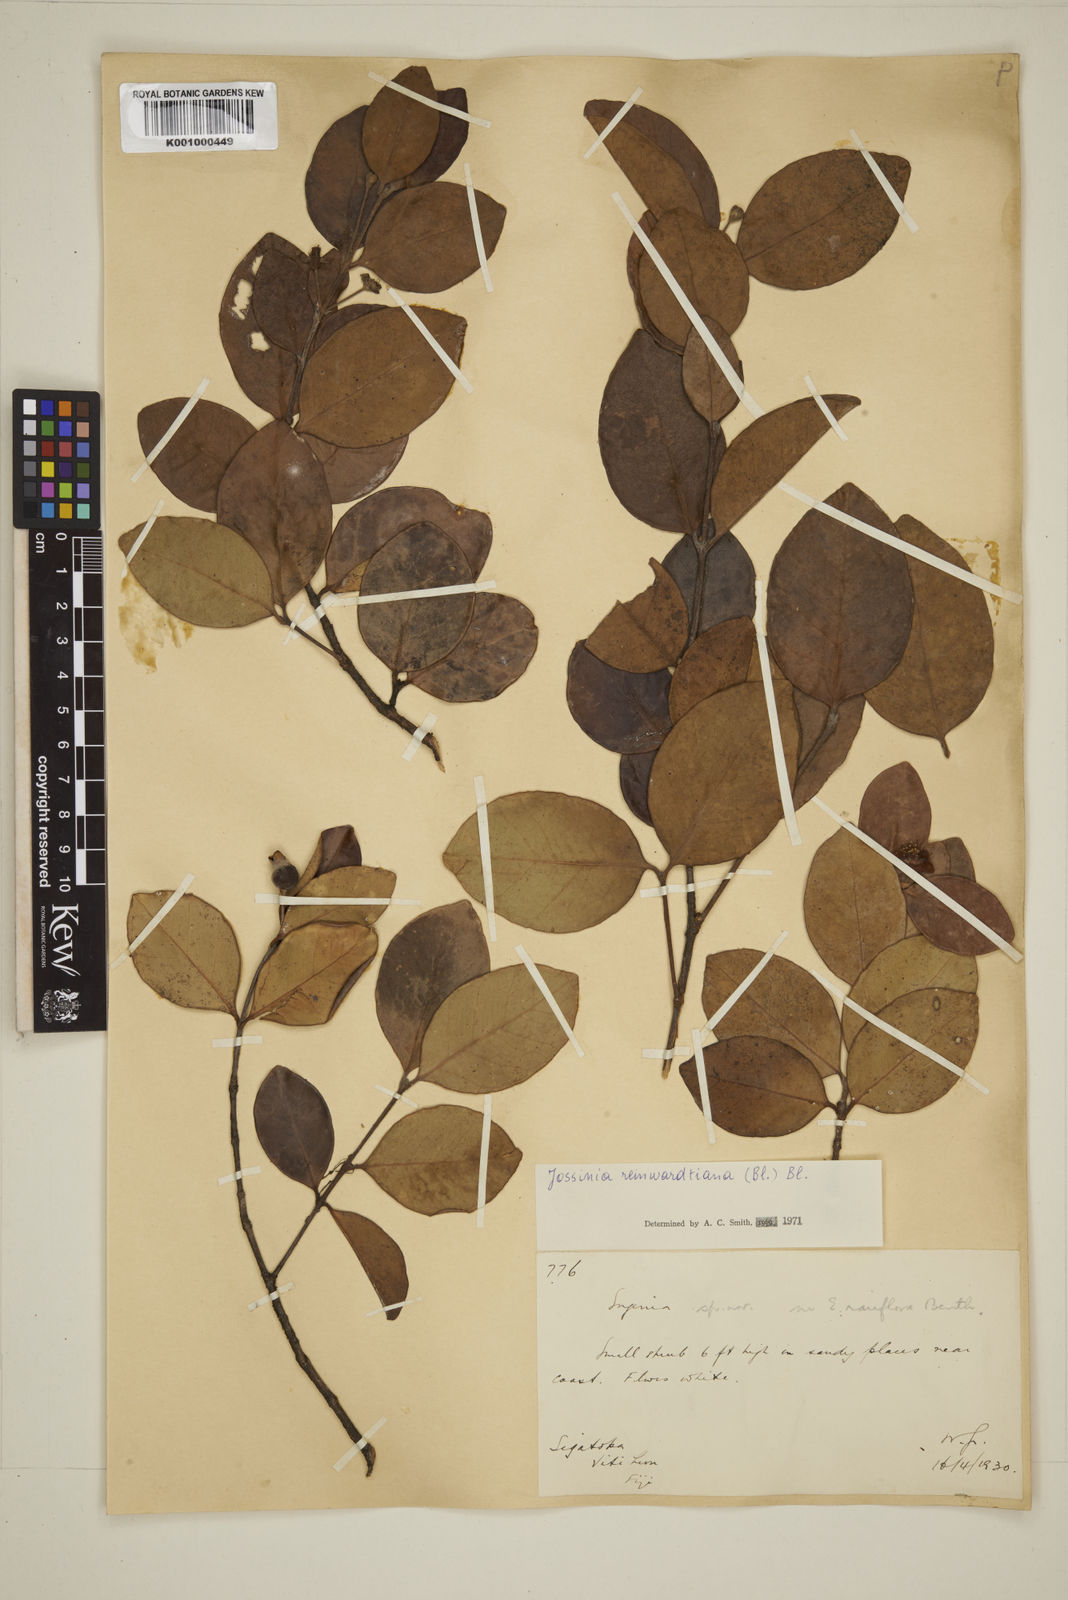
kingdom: Plantae
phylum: Tracheophyta
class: Magnoliopsida
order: Myrtales
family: Myrtaceae
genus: Eugenia
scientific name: Eugenia reinwardtiana
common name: Cedar bay-cherry
